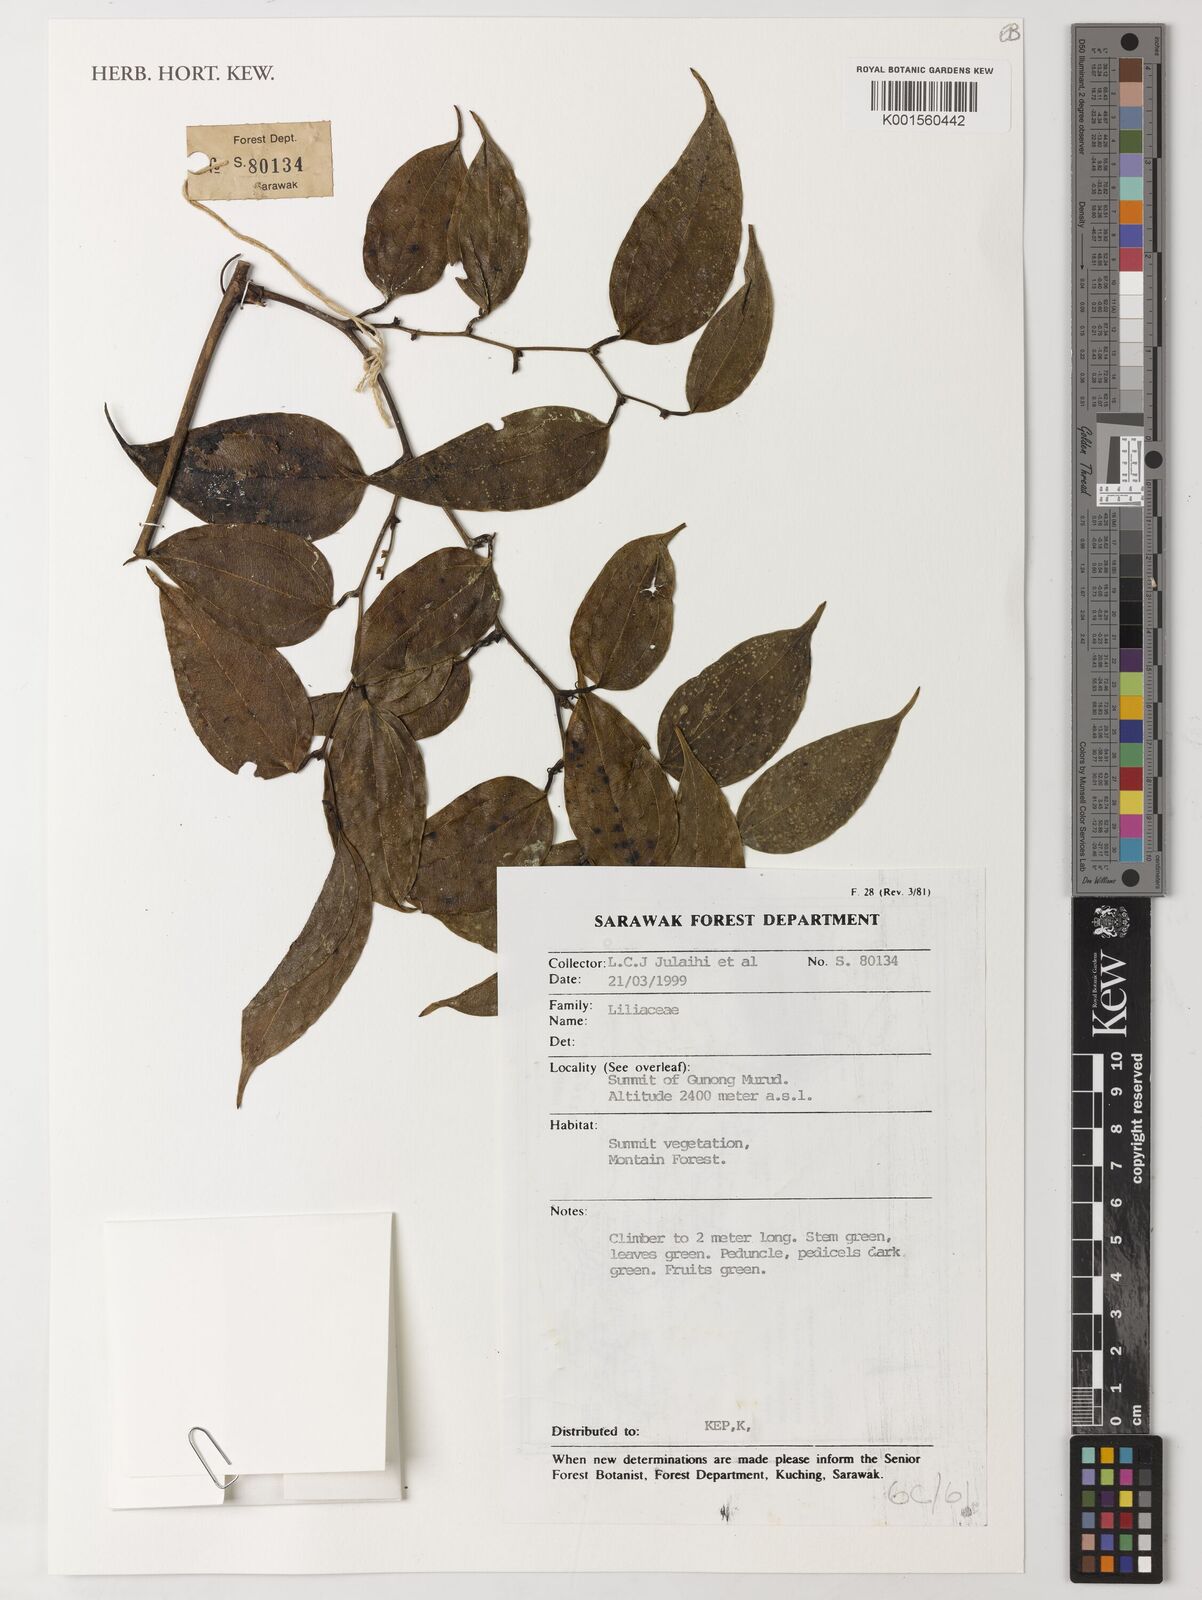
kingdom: Plantae
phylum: Tracheophyta
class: Liliopsida
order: Liliales
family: Liliaceae
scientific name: Liliaceae
